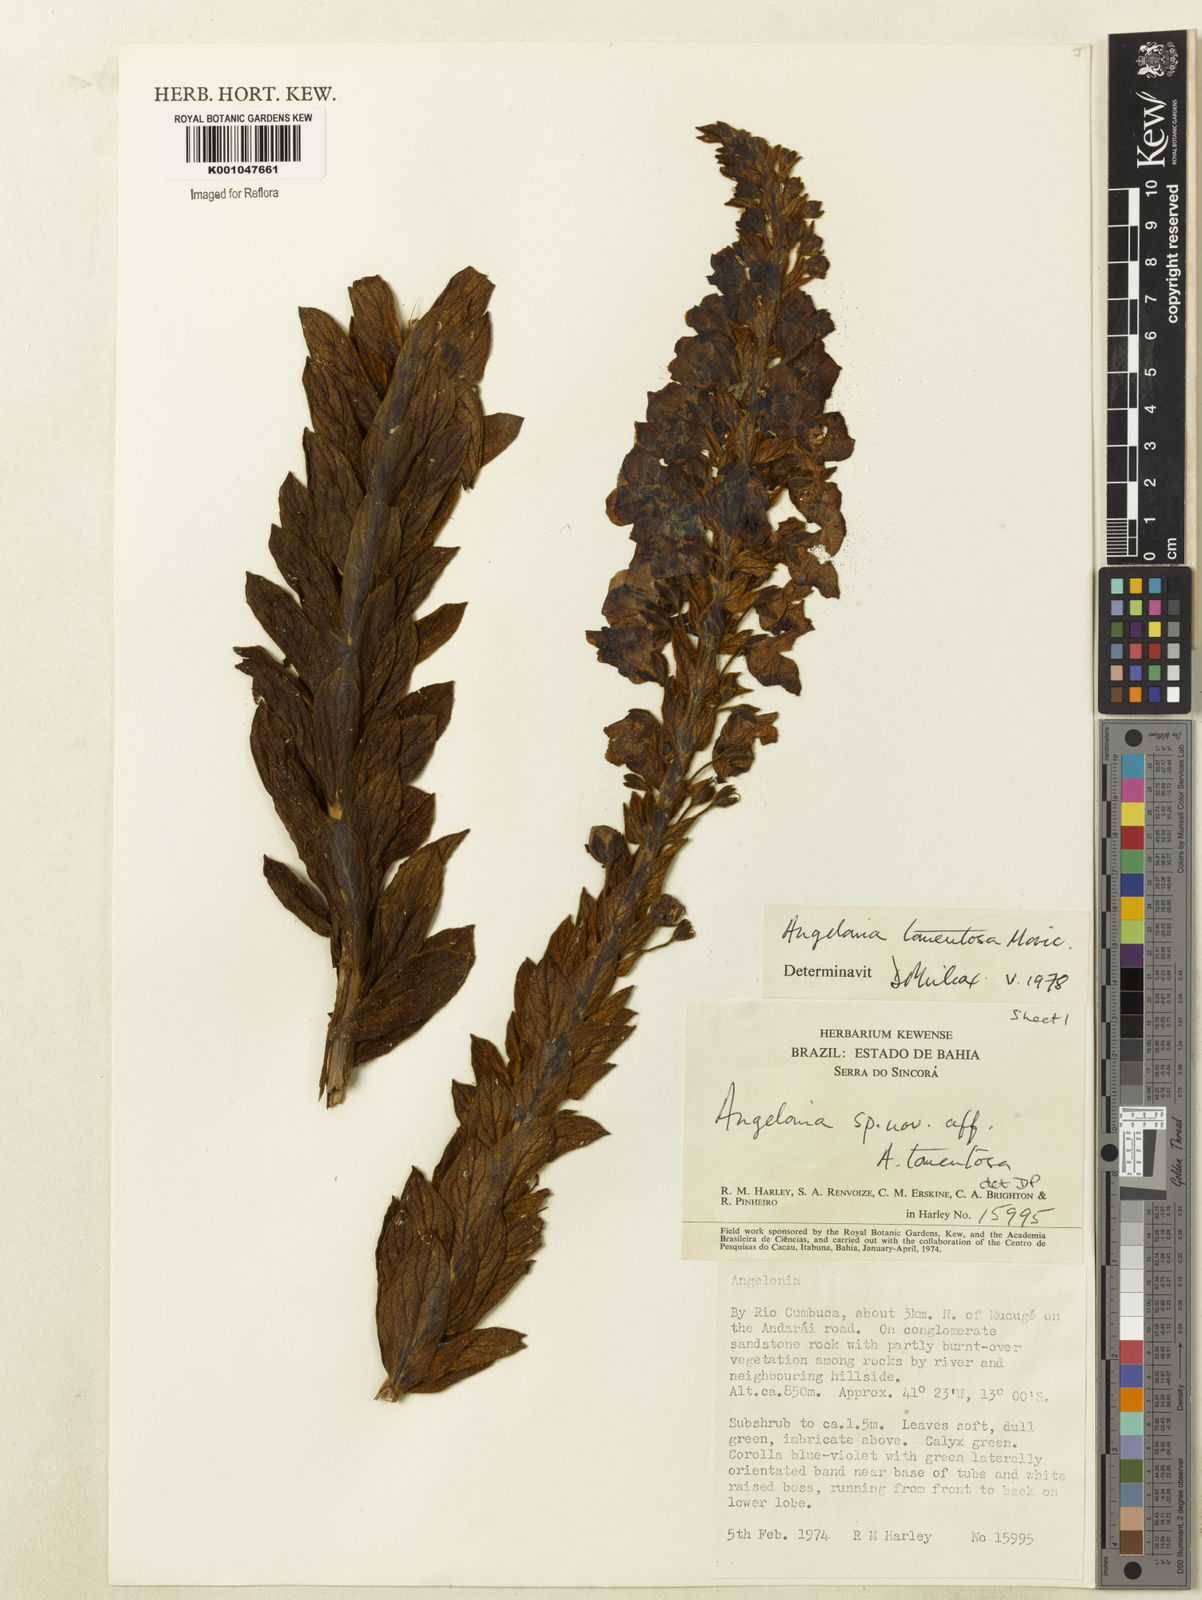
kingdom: Plantae
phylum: Tracheophyta
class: Magnoliopsida
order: Lamiales
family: Plantaginaceae
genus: Angelonia
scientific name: Angelonia tomentosa
